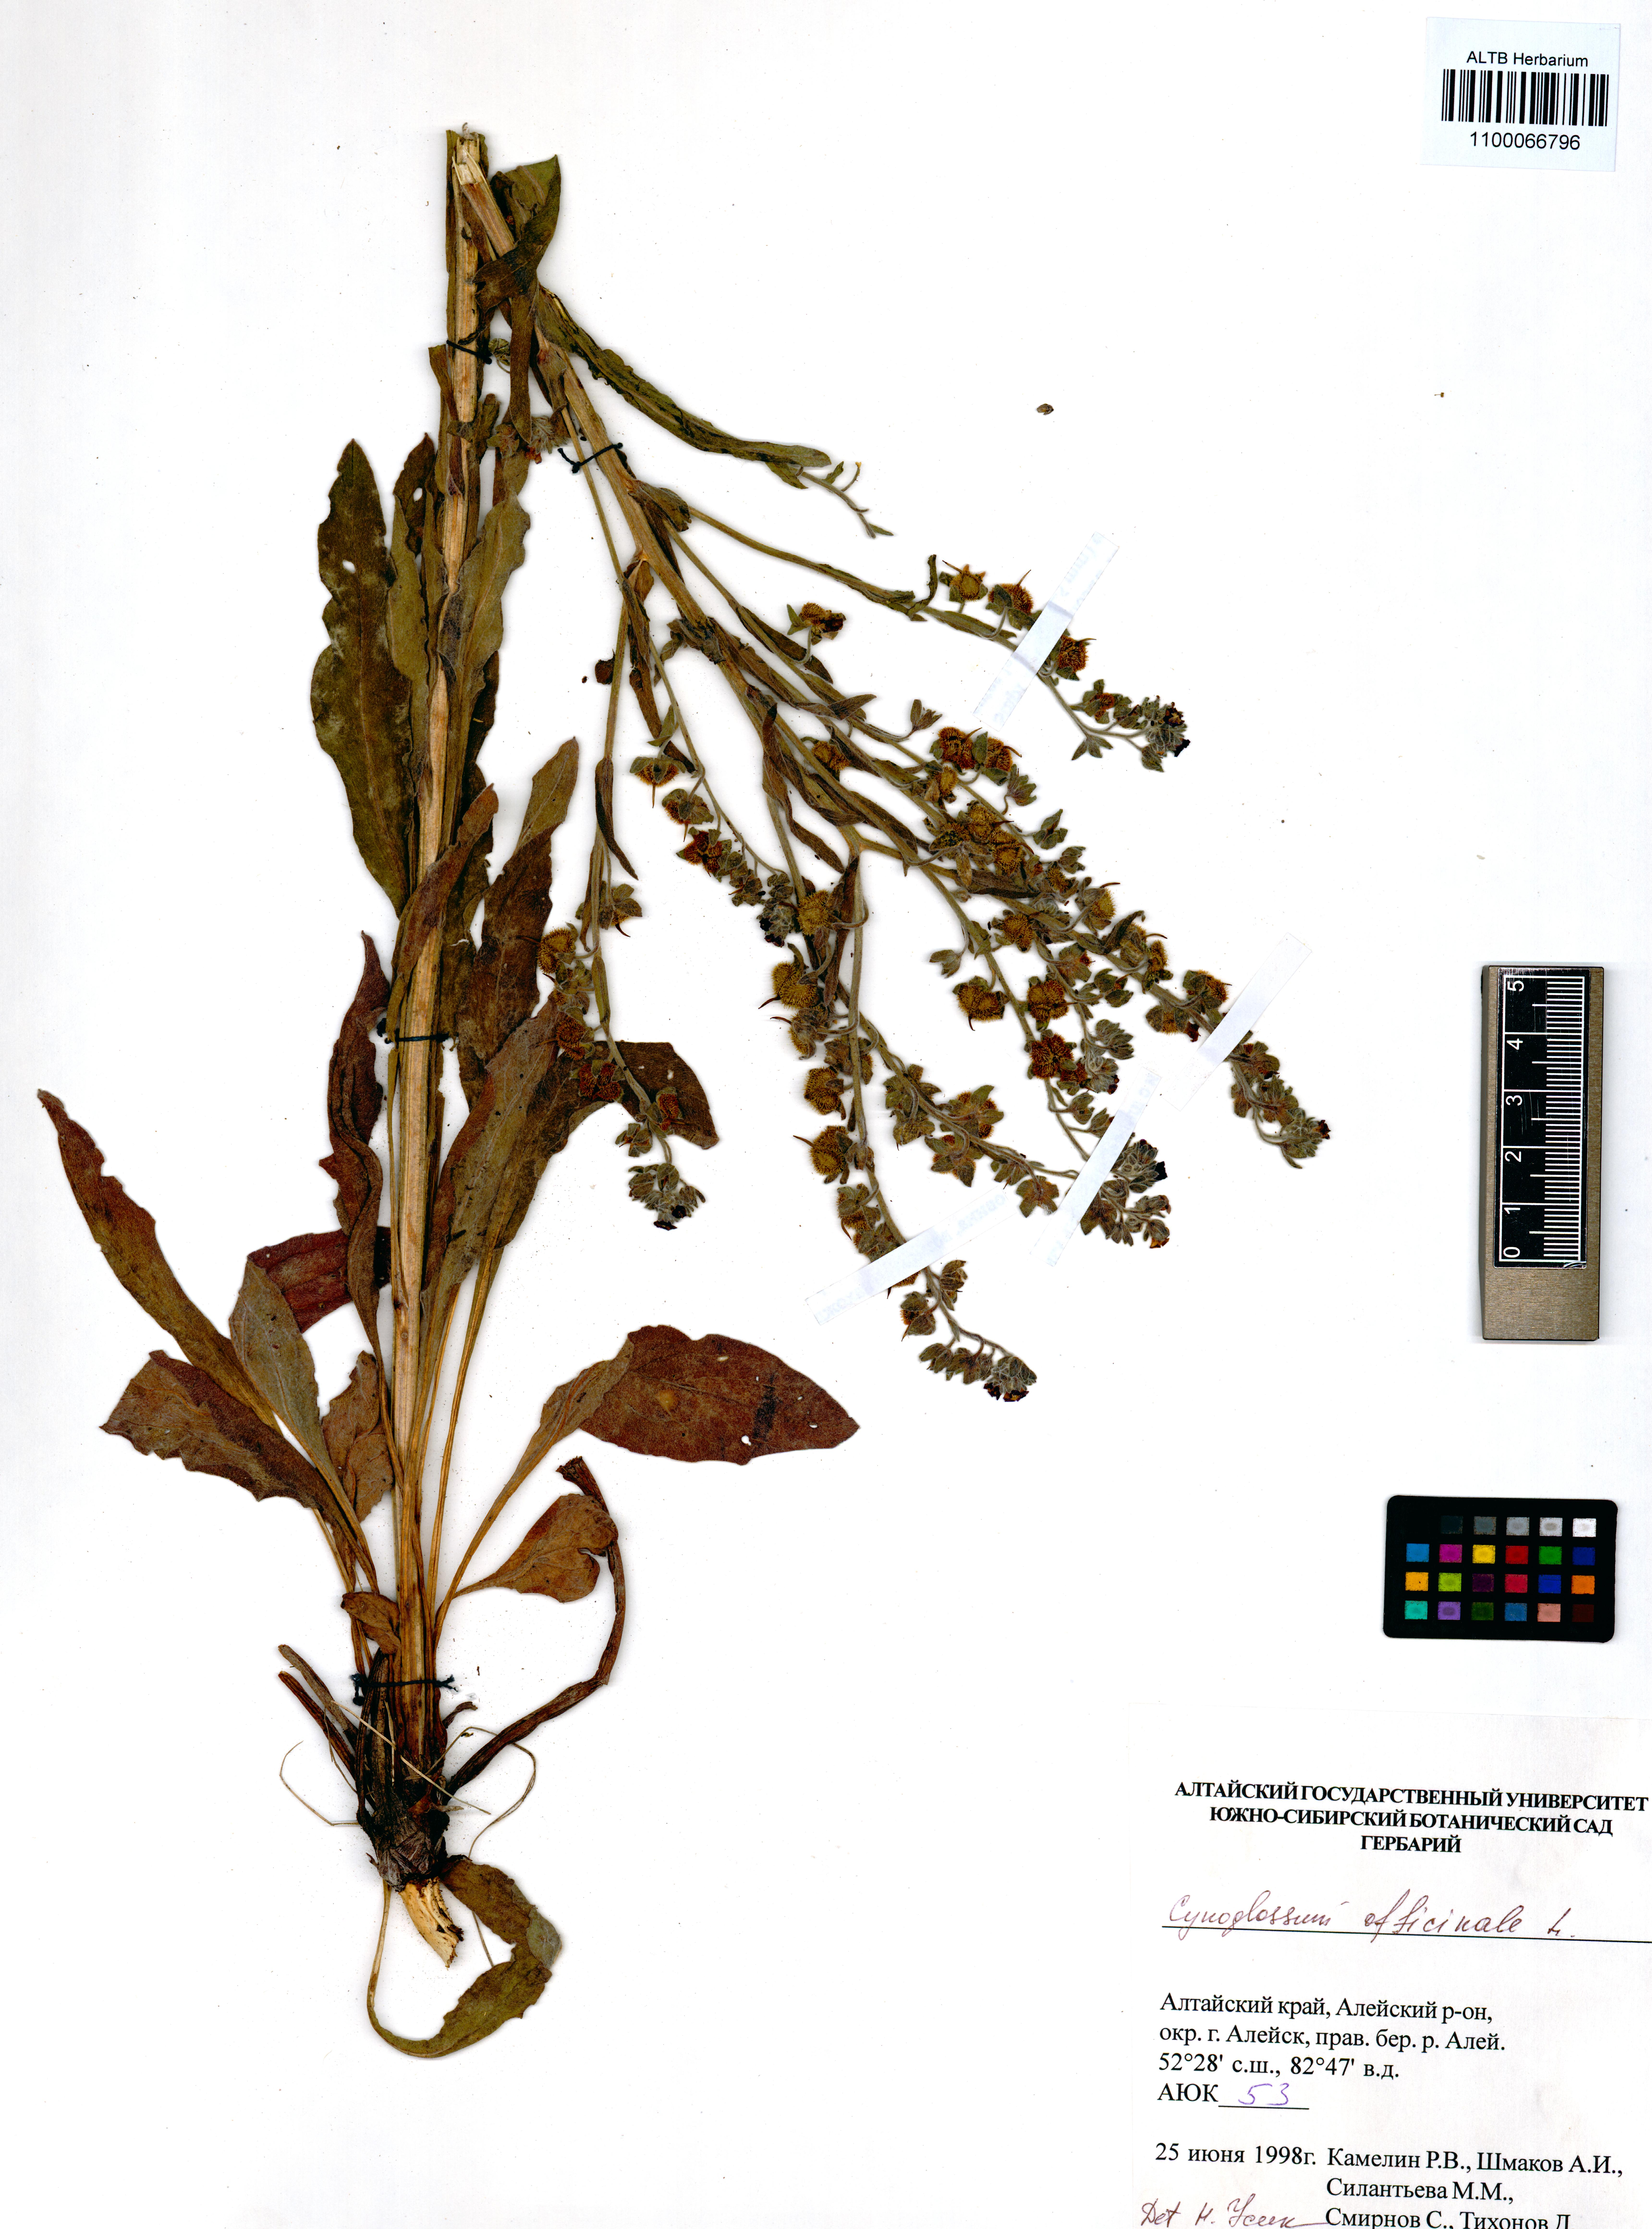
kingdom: Plantae
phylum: Tracheophyta
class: Magnoliopsida
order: Boraginales
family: Boraginaceae
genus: Cynoglossum
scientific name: Cynoglossum officinale
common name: Hound's-tongue
